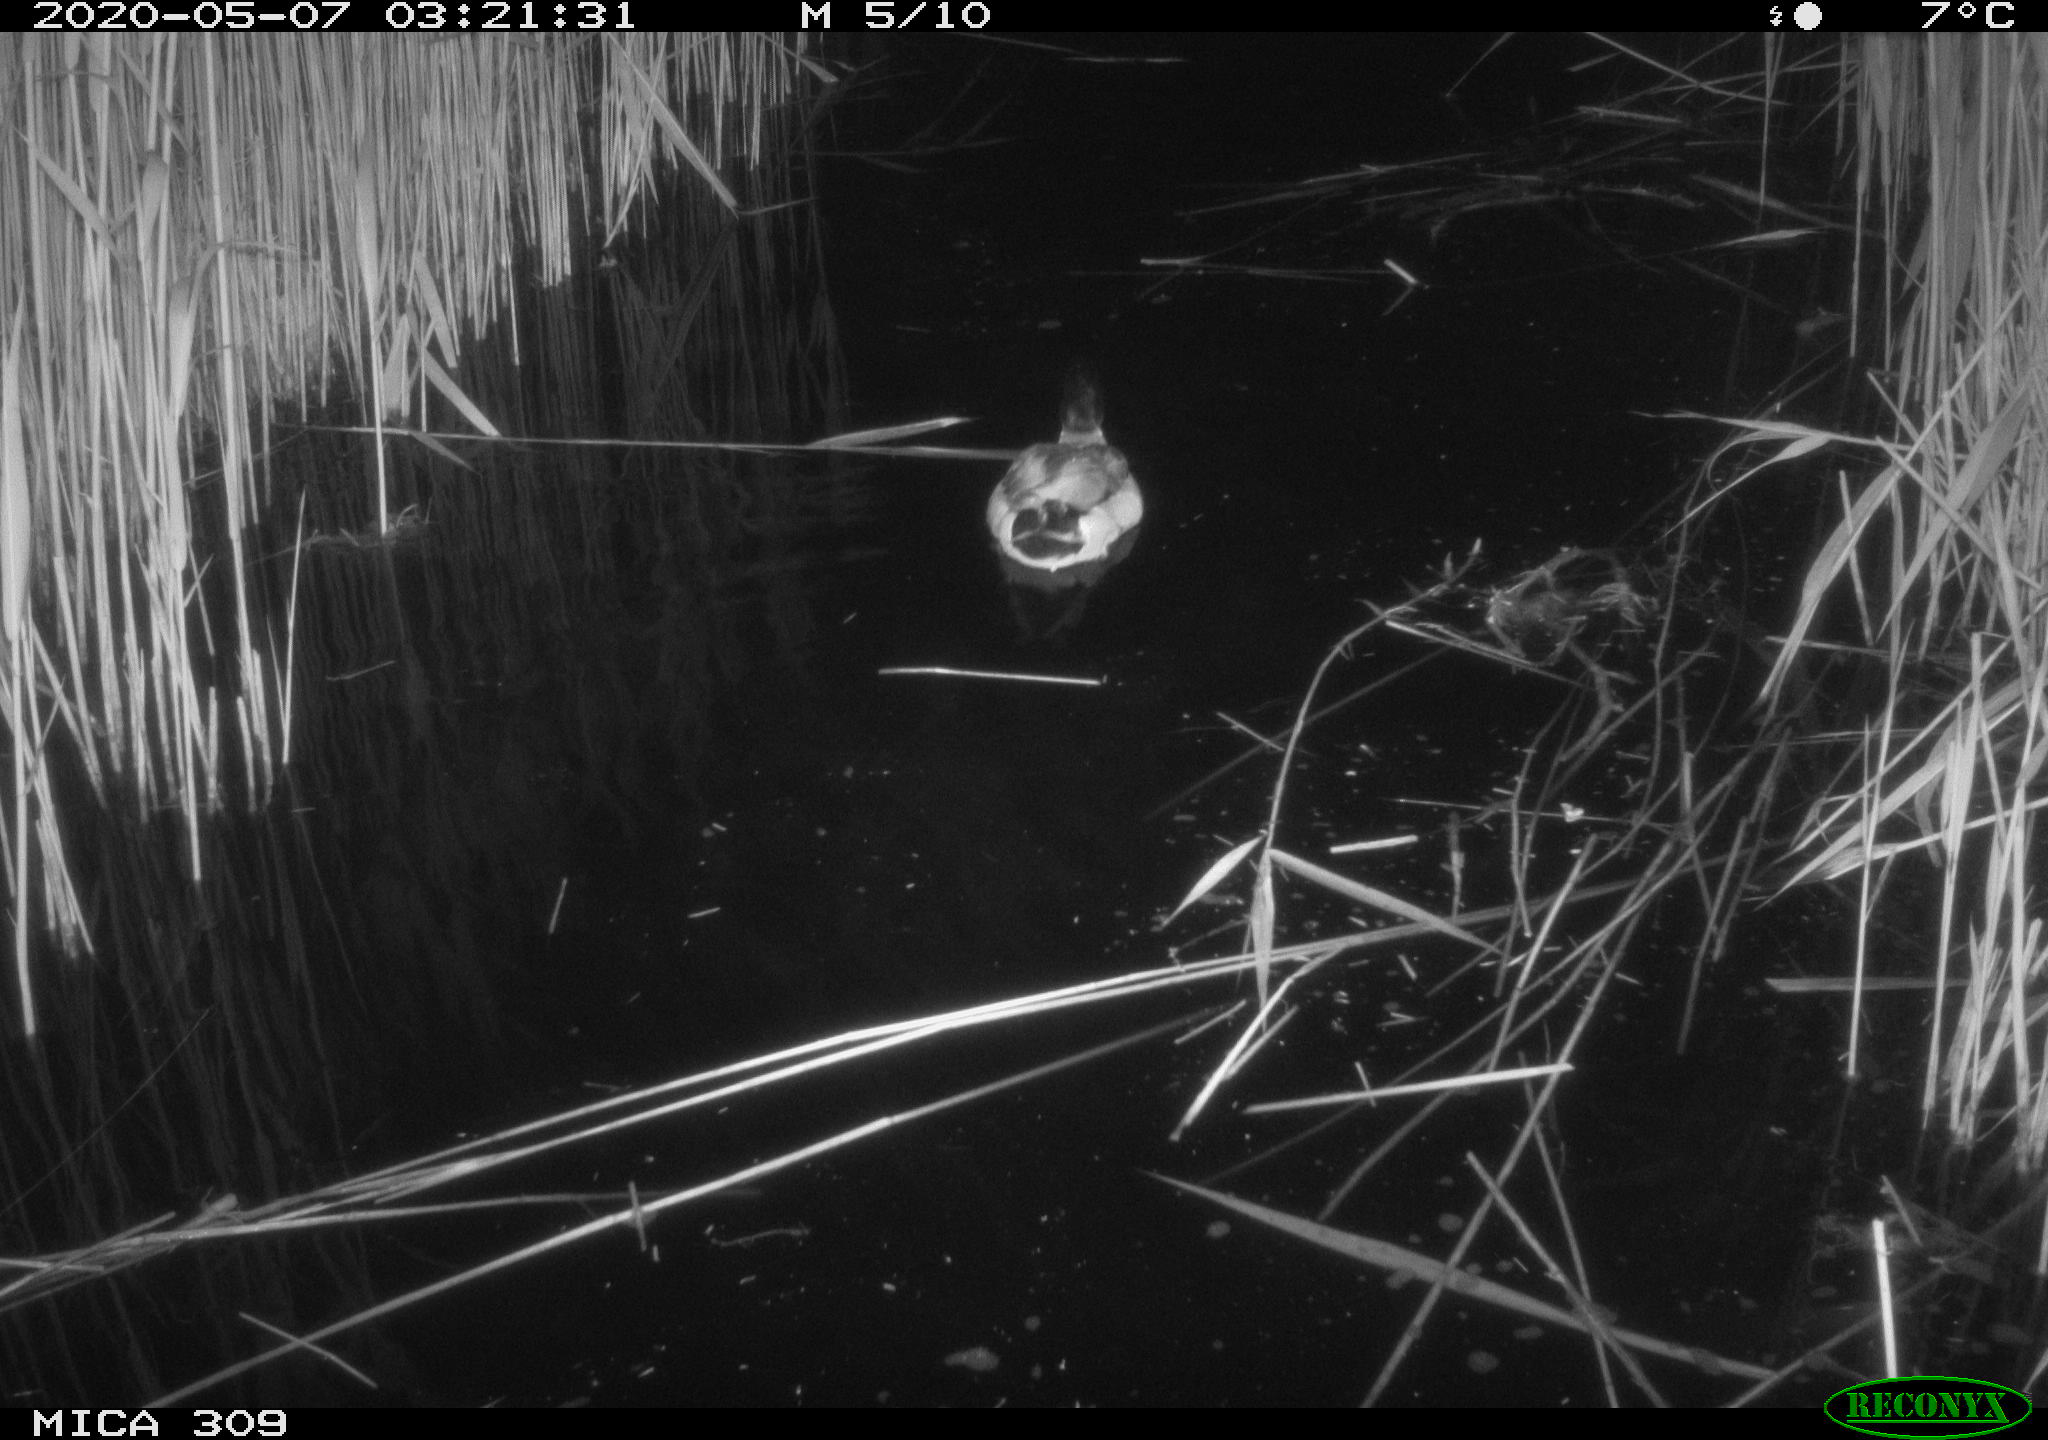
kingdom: Animalia
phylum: Chordata
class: Mammalia
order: Rodentia
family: Muridae
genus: Rattus
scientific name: Rattus norvegicus
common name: Brown rat
